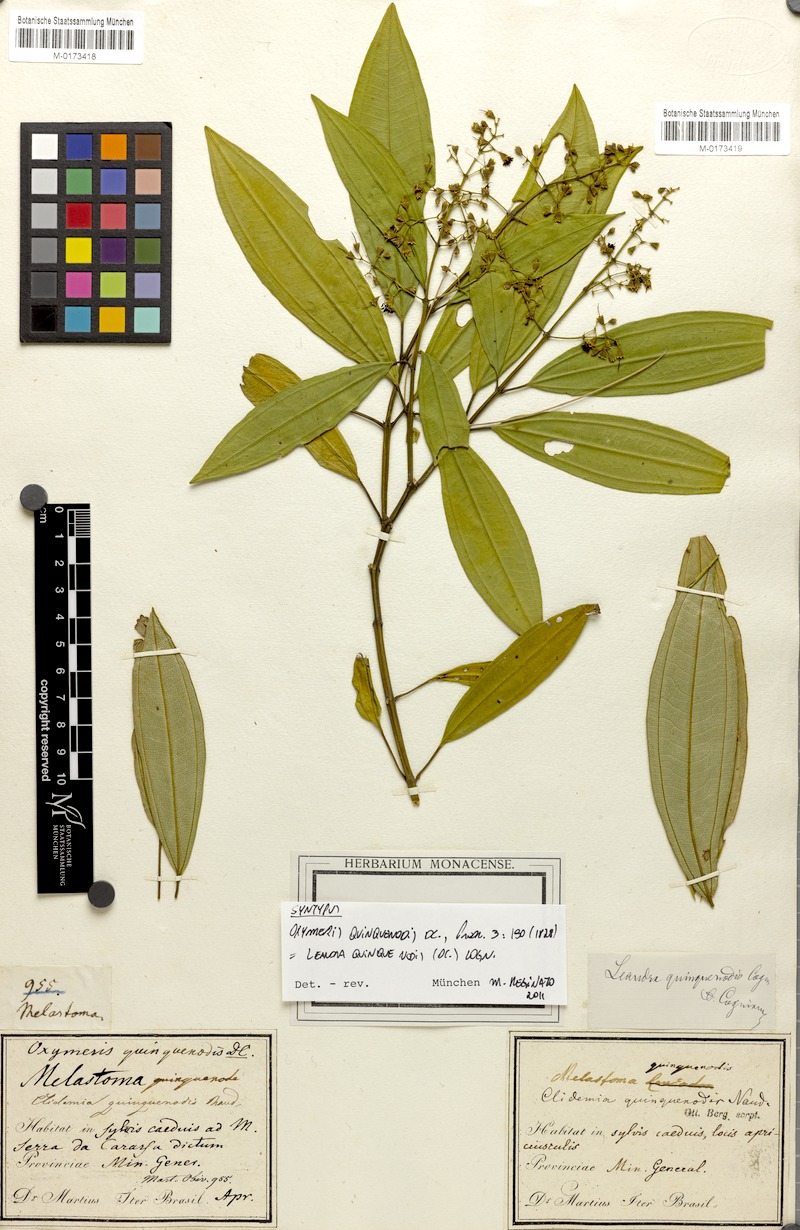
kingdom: Plantae
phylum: Tracheophyta
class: Magnoliopsida
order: Myrtales
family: Melastomataceae
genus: Miconia
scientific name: Miconia quinquenodis
